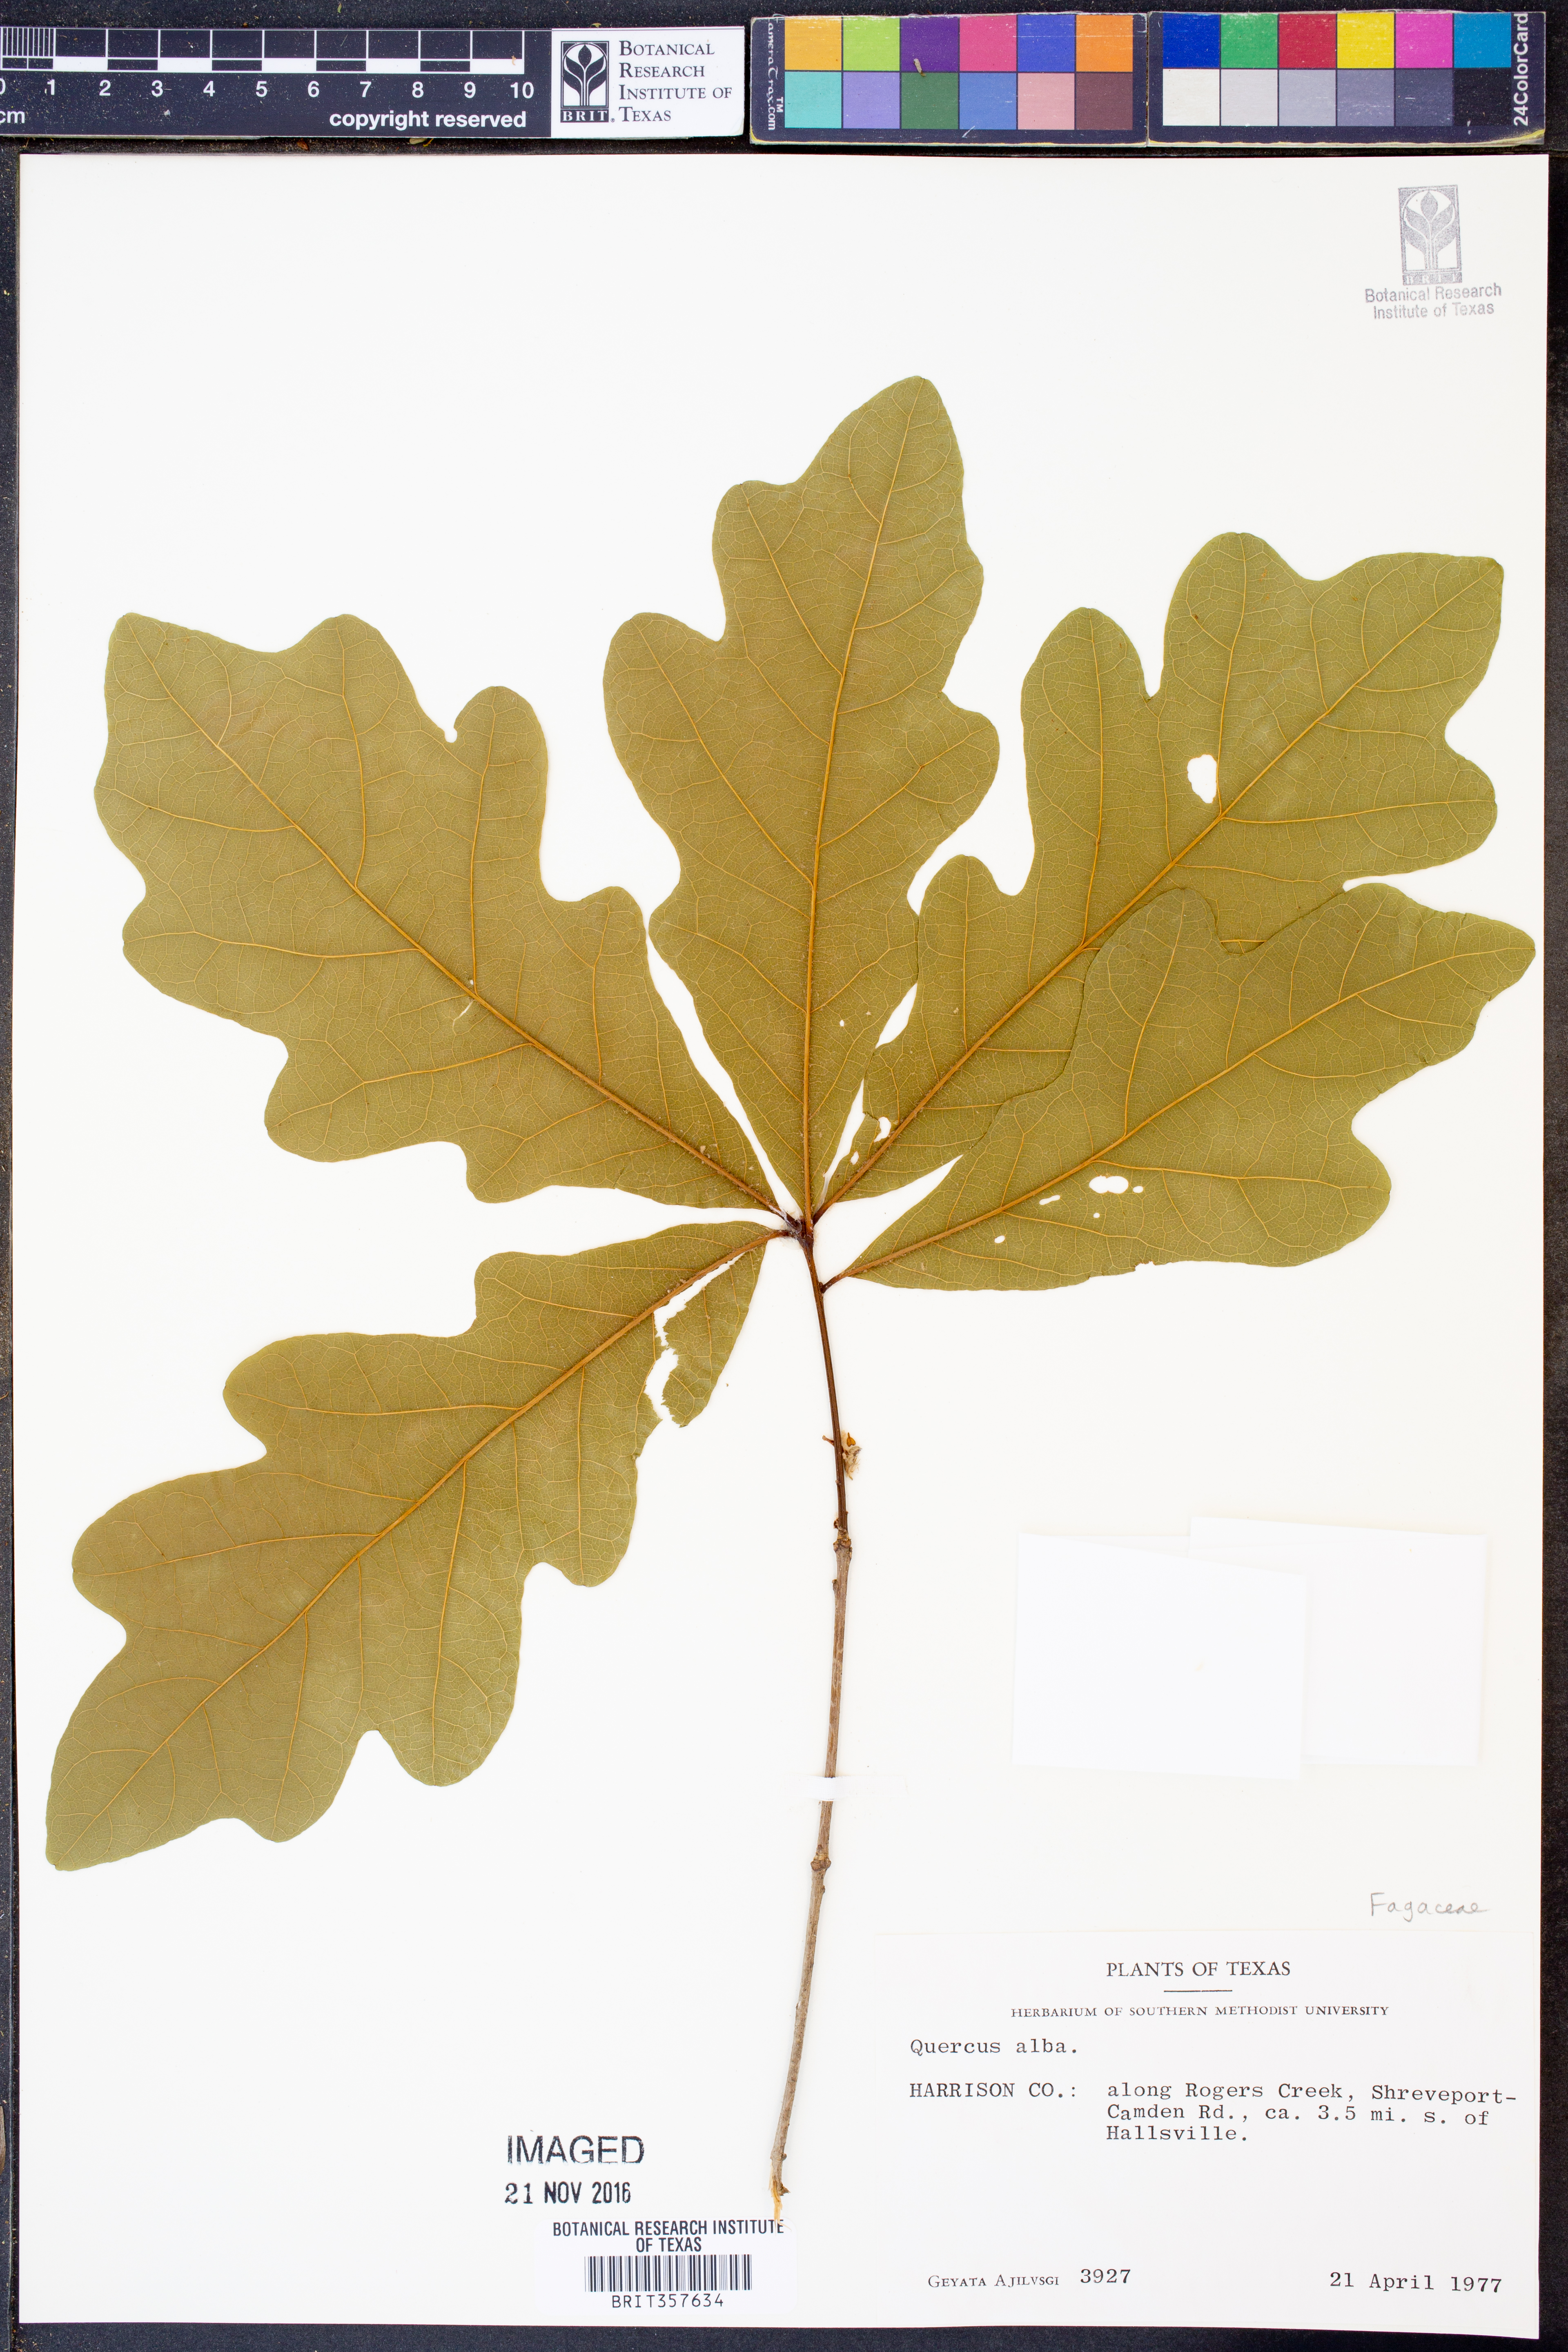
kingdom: Plantae
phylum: Tracheophyta
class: Magnoliopsida
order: Fagales
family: Fagaceae
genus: Quercus
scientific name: Quercus alba
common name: White oak
